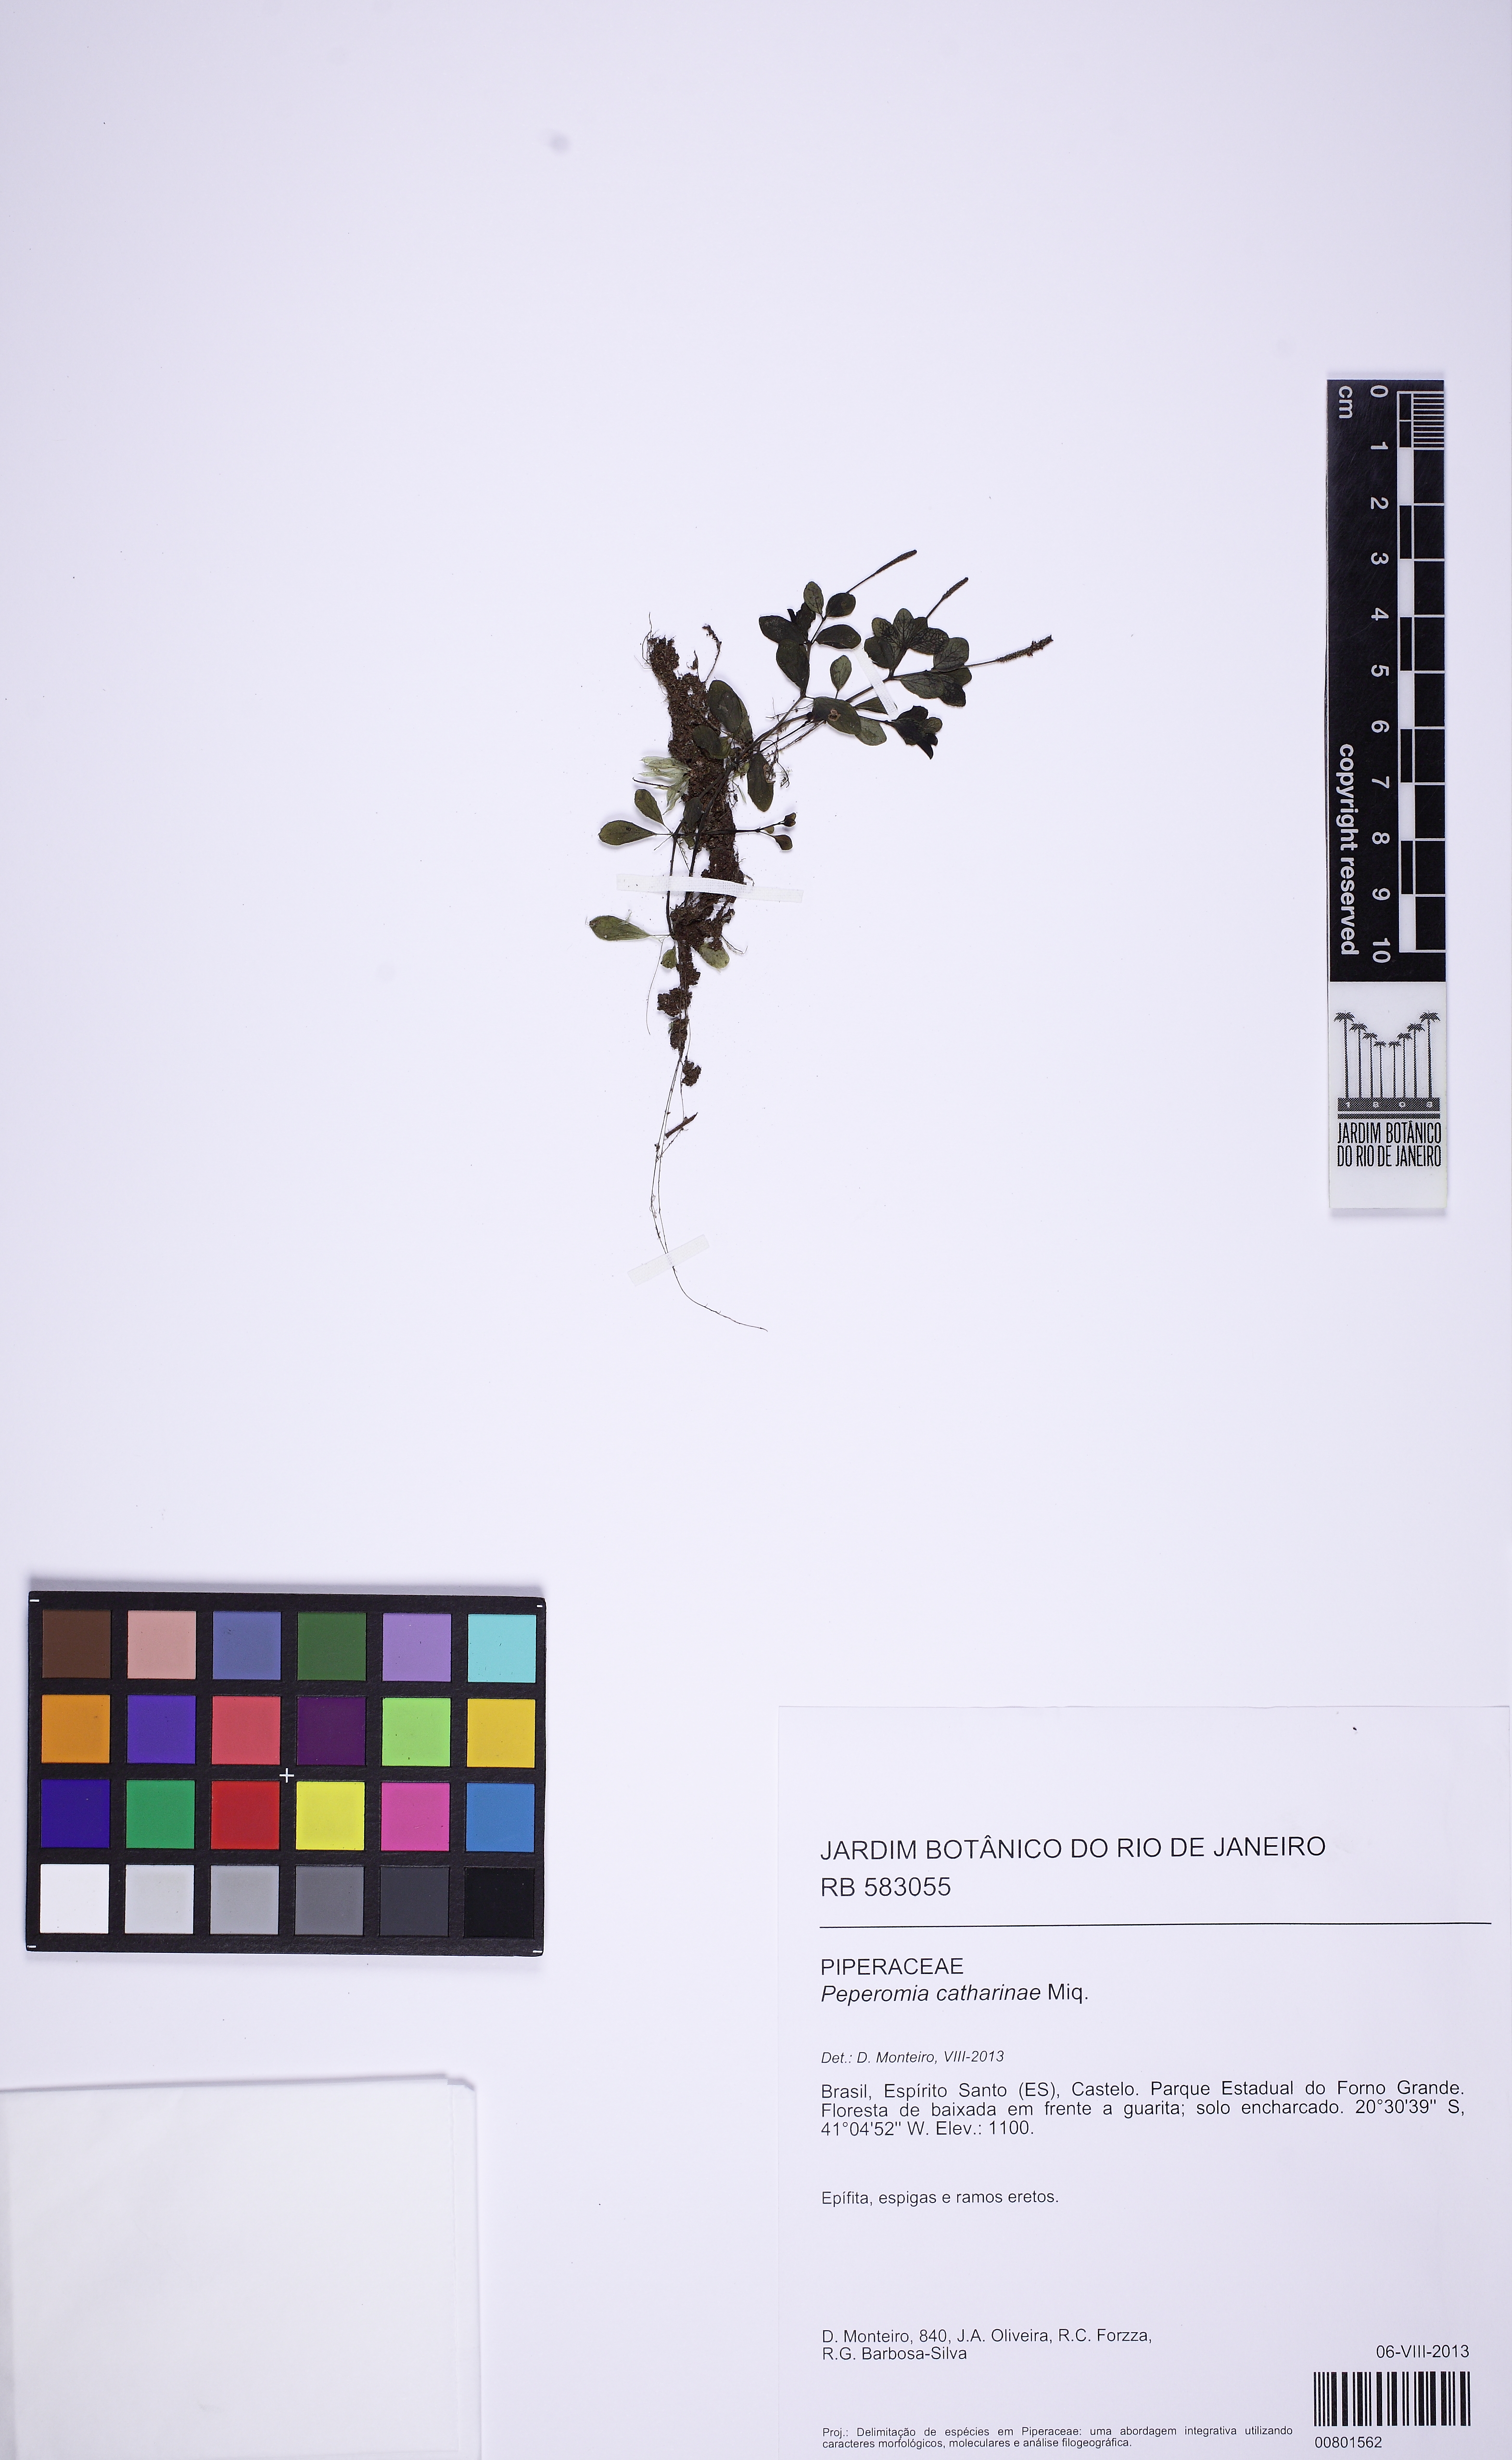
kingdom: Plantae
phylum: Tracheophyta
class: Magnoliopsida
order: Piperales
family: Piperaceae
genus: Peperomia
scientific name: Peperomia catharinae
